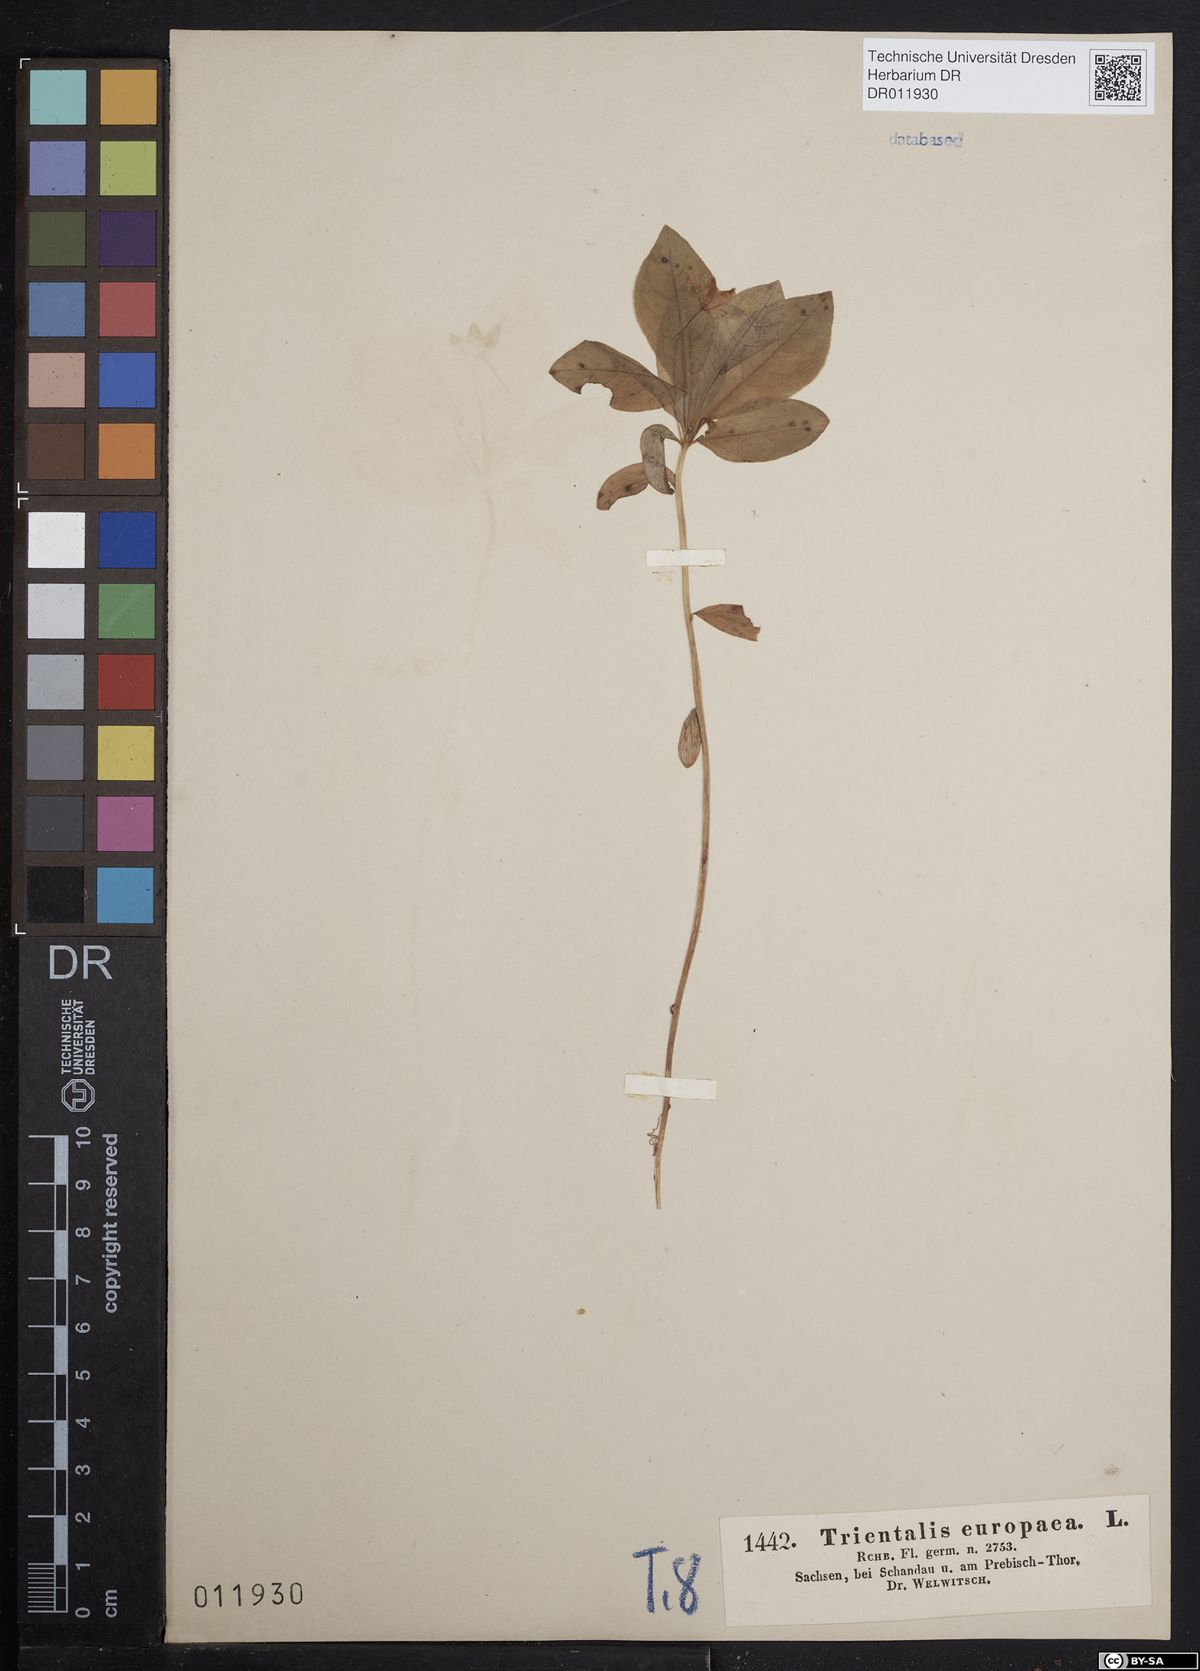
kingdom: Plantae
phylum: Tracheophyta
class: Magnoliopsida
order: Ericales
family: Primulaceae
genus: Lysimachia
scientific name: Lysimachia europaea
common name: Arctic starflower
